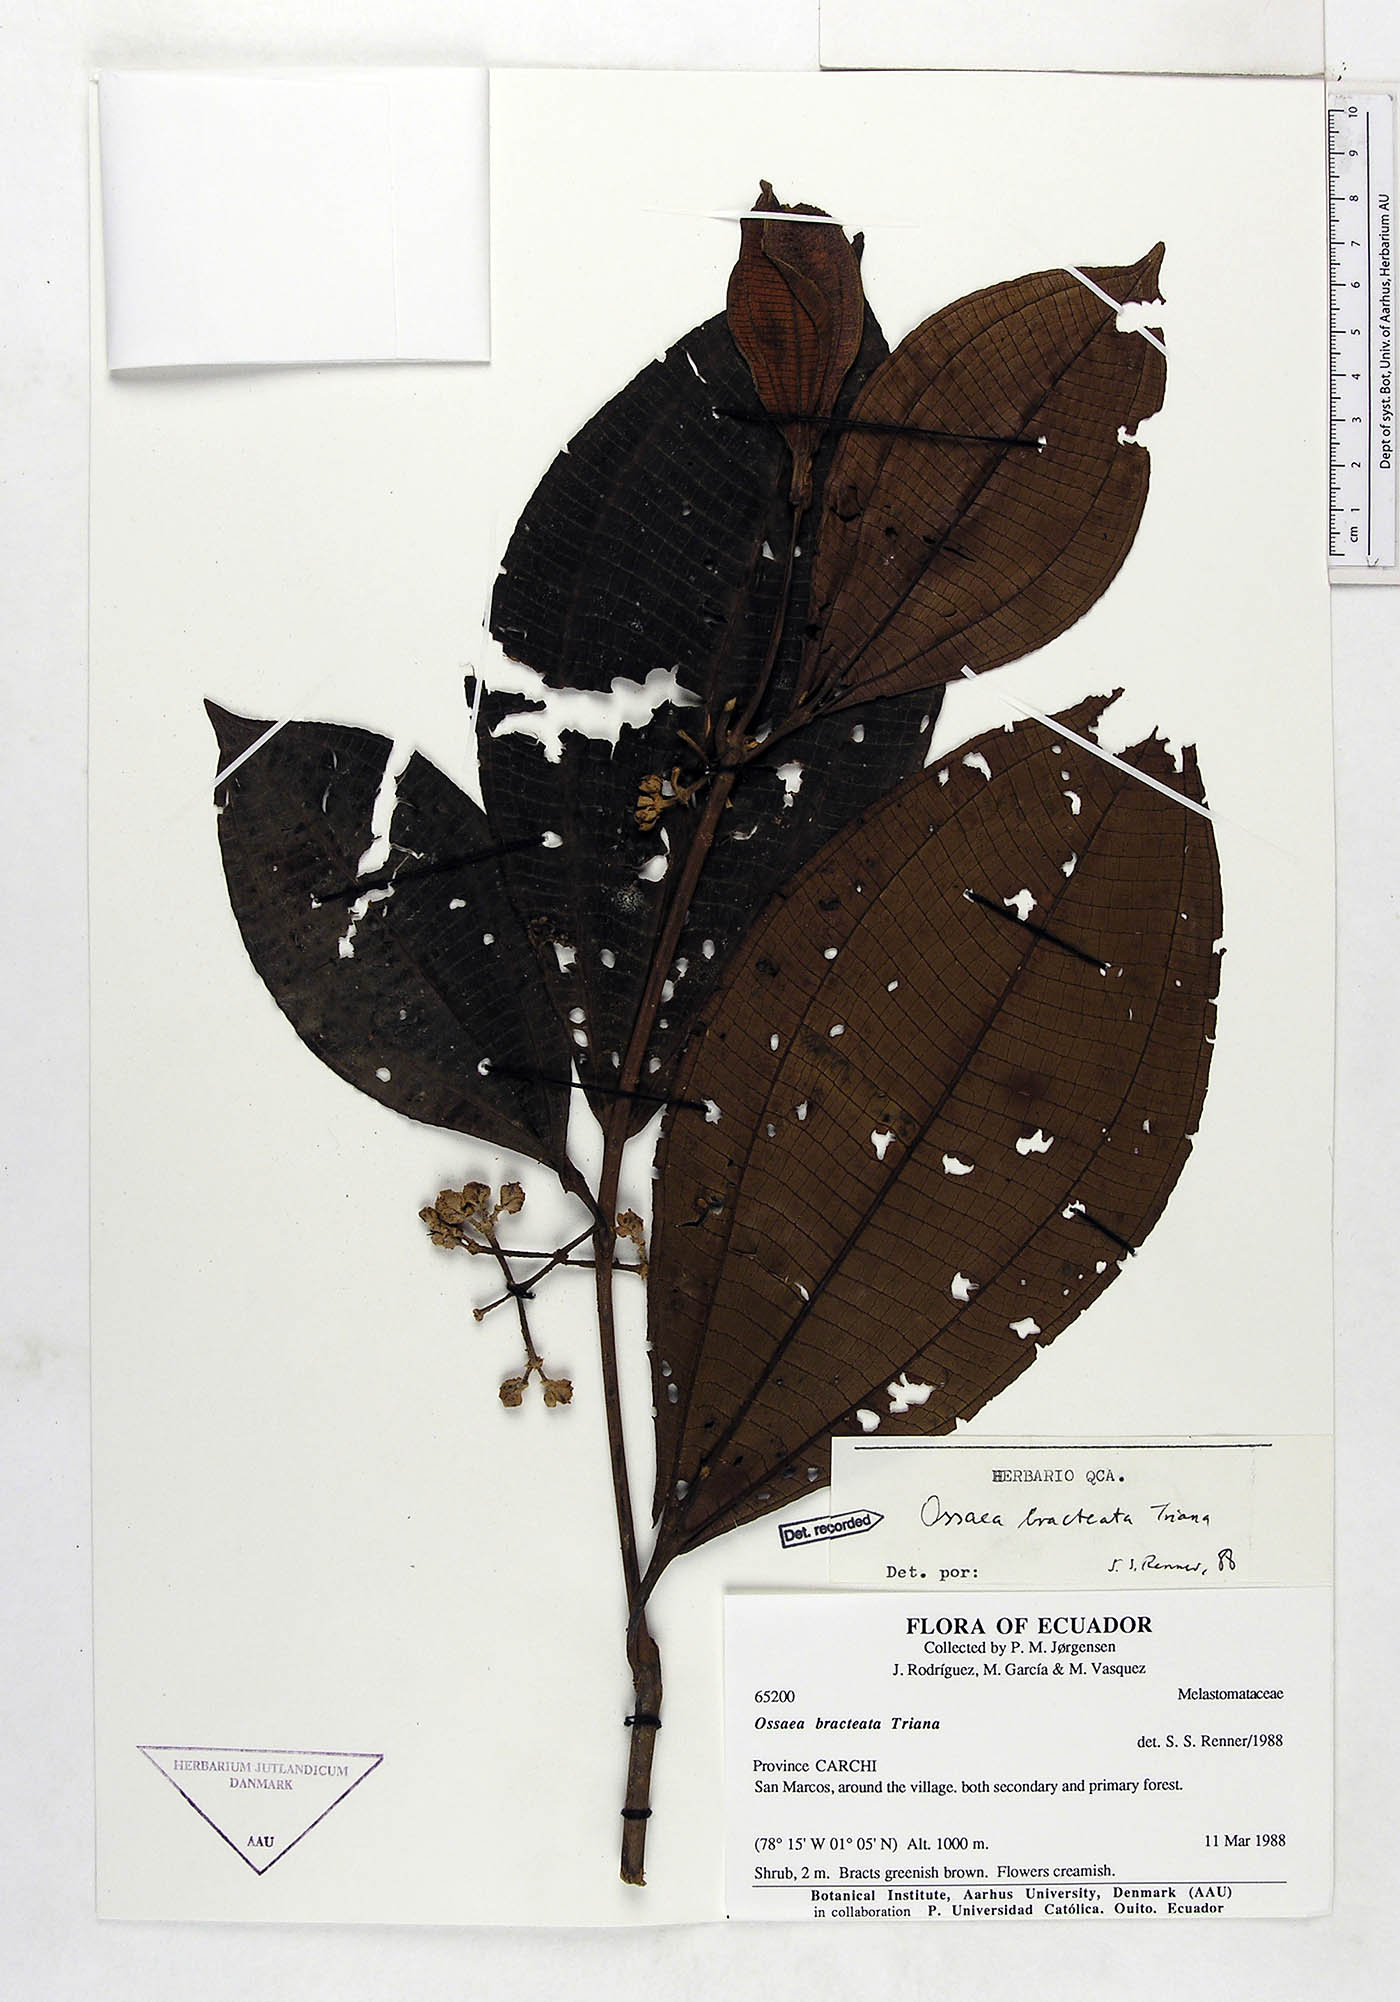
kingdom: Plantae
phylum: Tracheophyta
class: Magnoliopsida
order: Myrtales
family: Melastomataceae
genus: Miconia
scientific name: Miconia bractiflora
